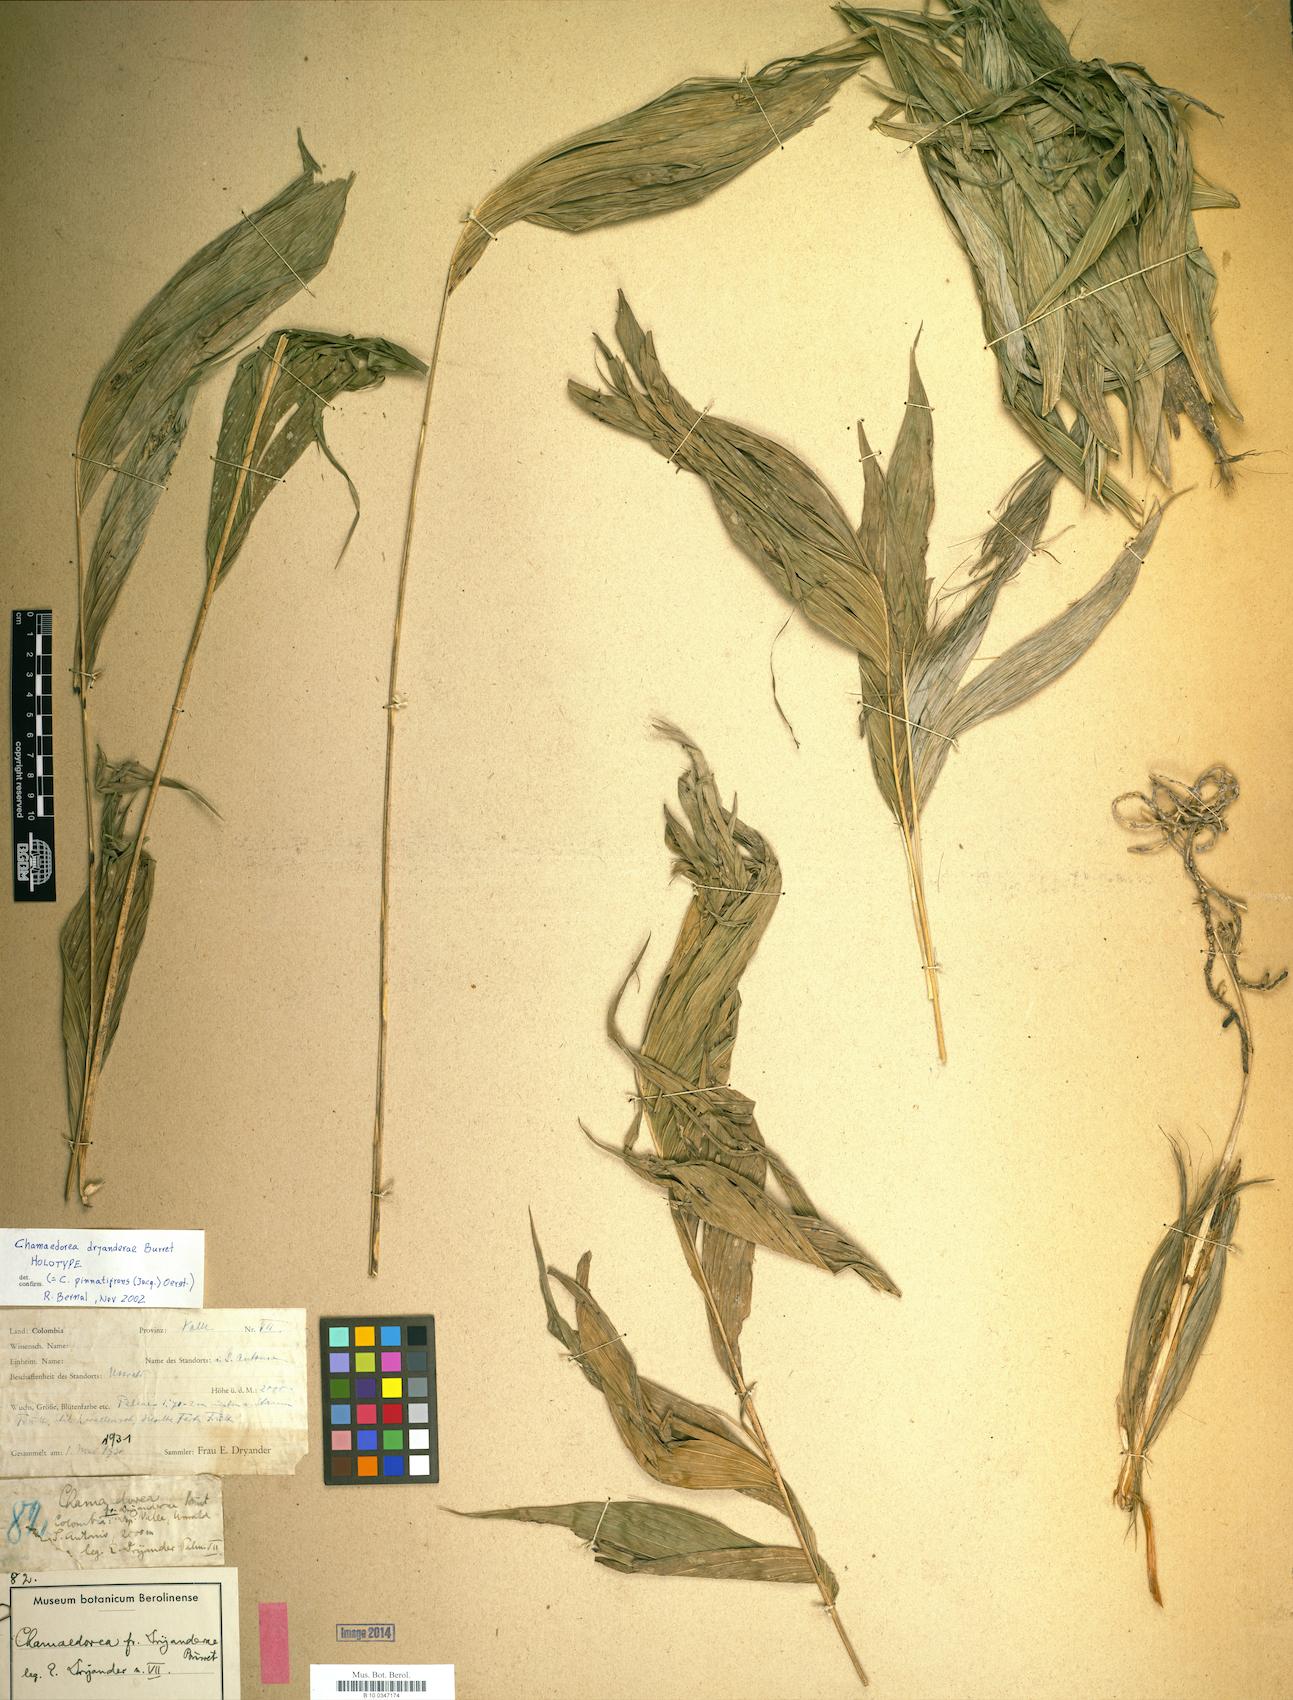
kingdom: Plantae
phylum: Tracheophyta
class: Liliopsida
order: Arecales
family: Arecaceae
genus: Chamaedorea
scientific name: Chamaedorea pinnatifrons
